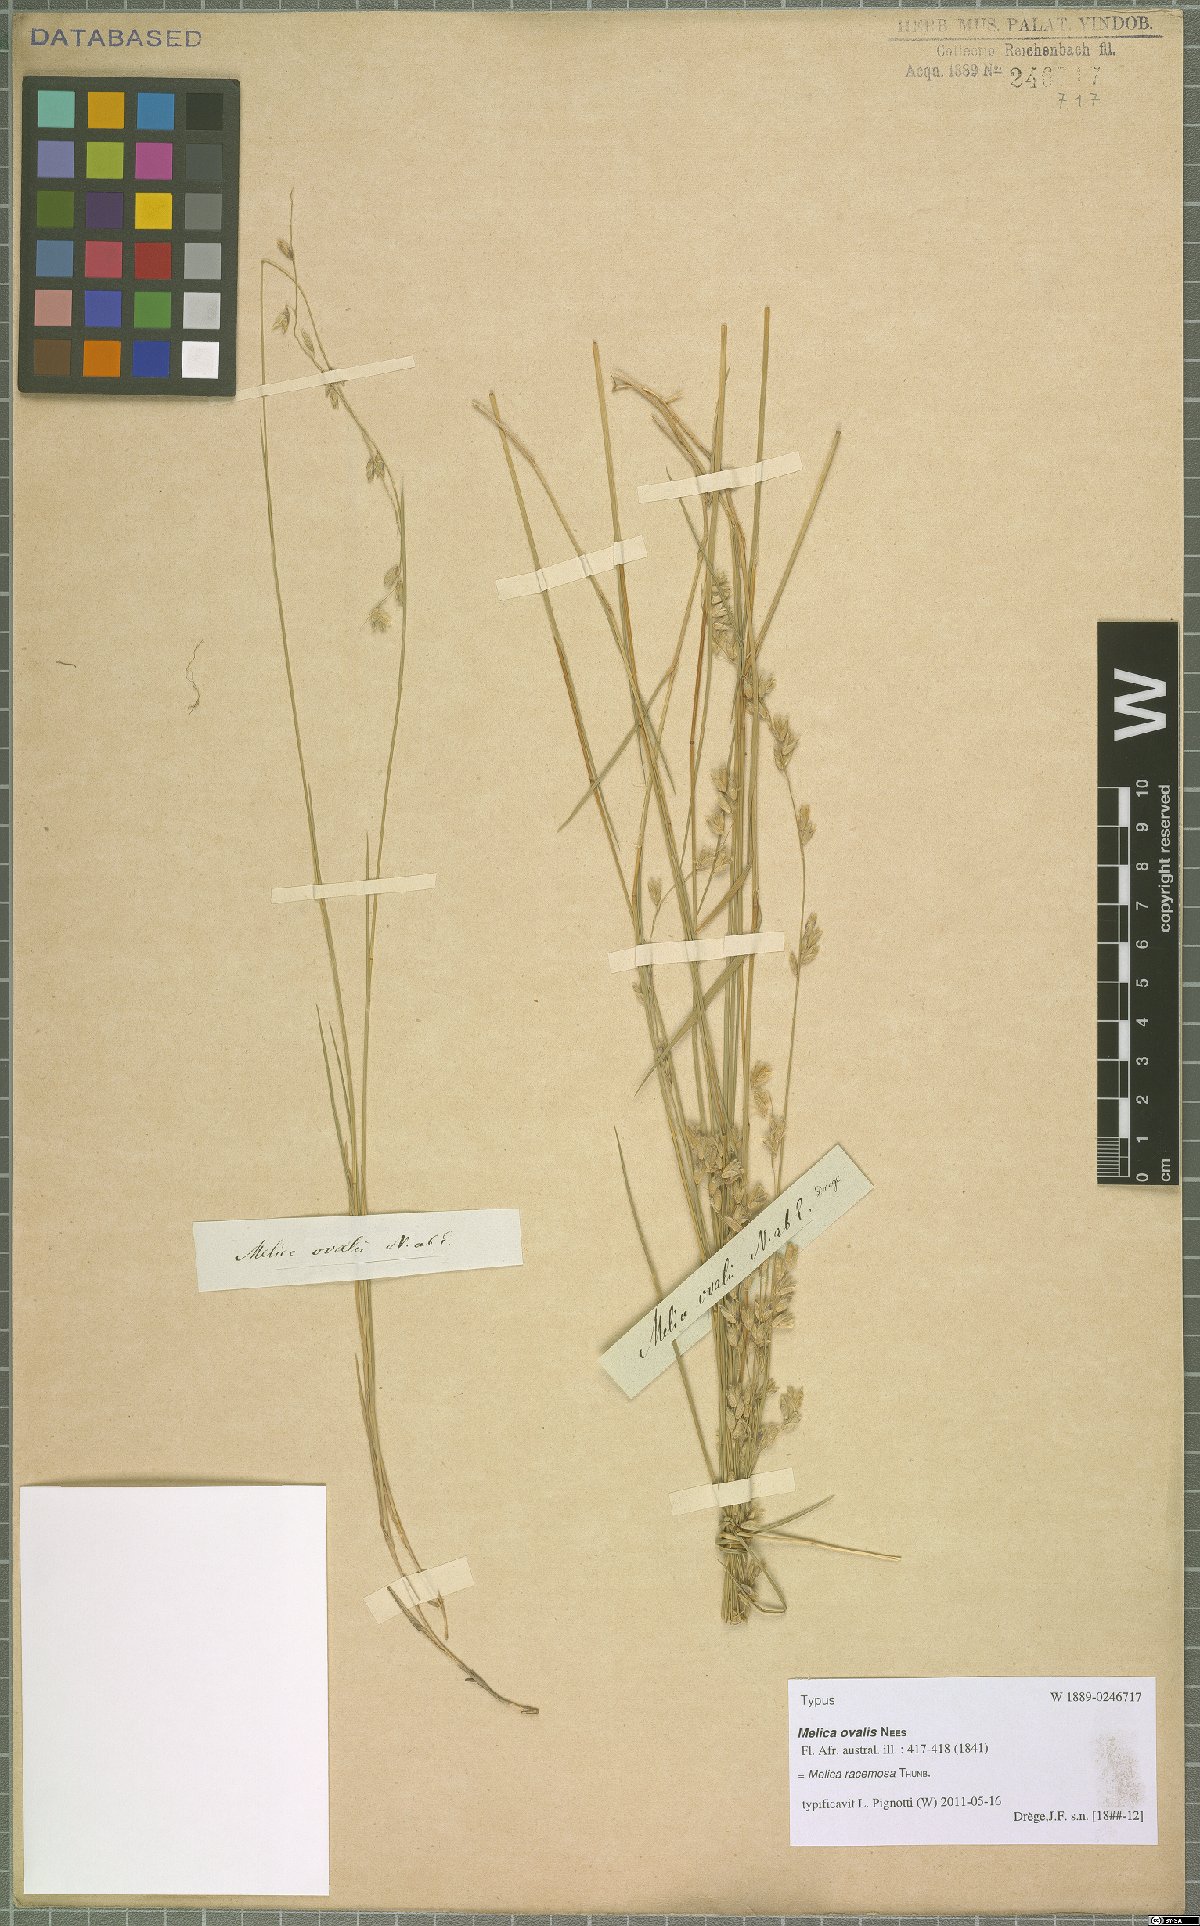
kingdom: Plantae
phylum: Tracheophyta
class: Liliopsida
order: Poales
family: Poaceae
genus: Melica
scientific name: Melica racemosa
